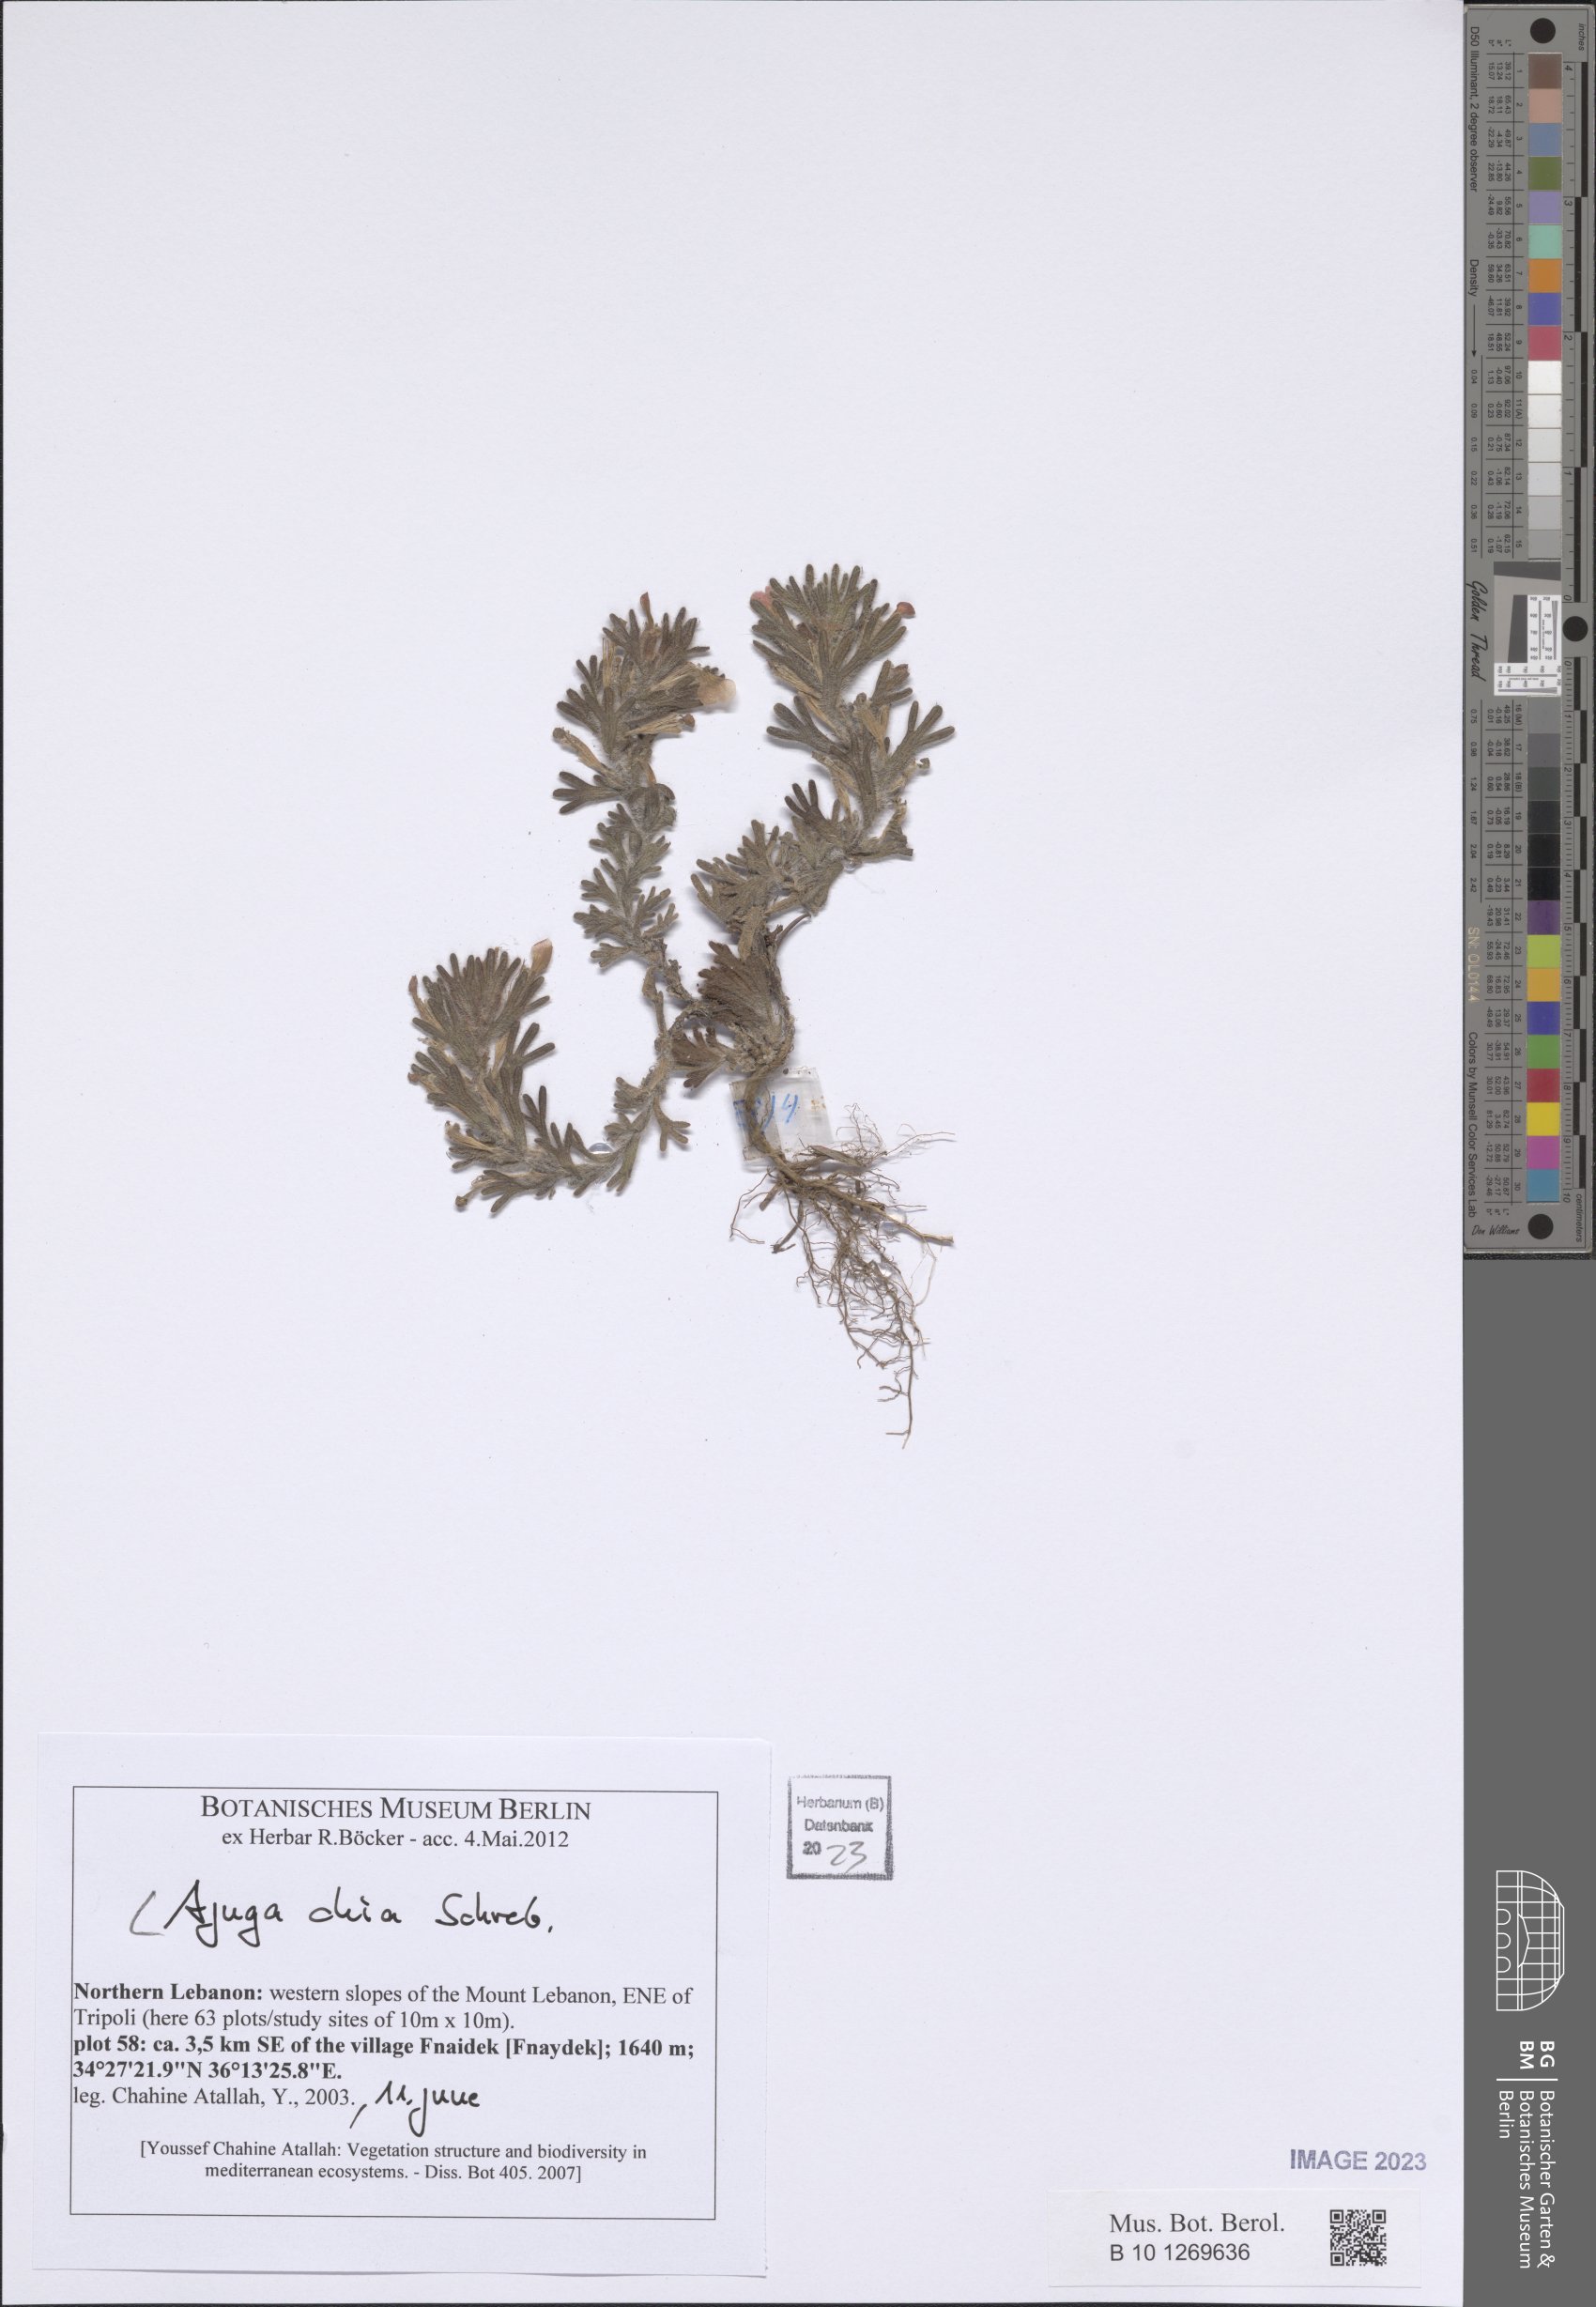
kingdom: Plantae
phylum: Tracheophyta
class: Magnoliopsida
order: Lamiales
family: Lamiaceae
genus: Ajuga
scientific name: Ajuga chamaepitys
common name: Ground-pine
